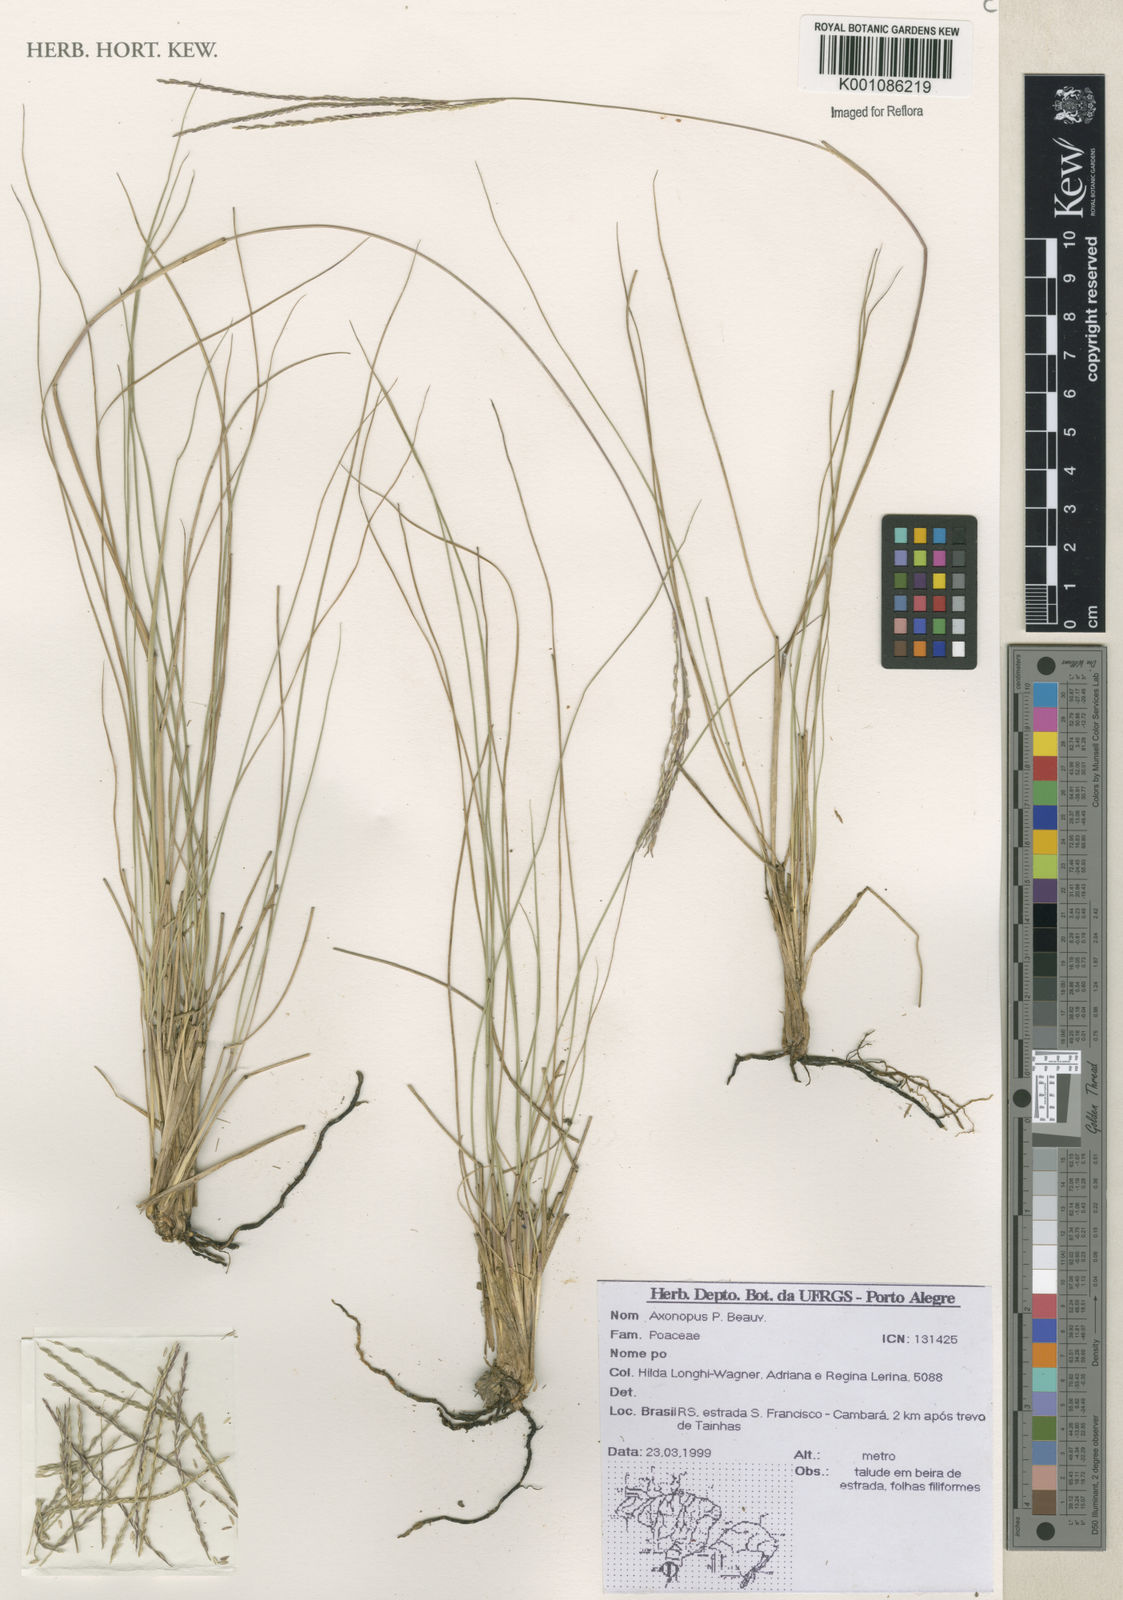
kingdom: Plantae
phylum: Tracheophyta
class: Liliopsida
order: Poales
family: Poaceae
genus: Axonopus
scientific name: Axonopus
